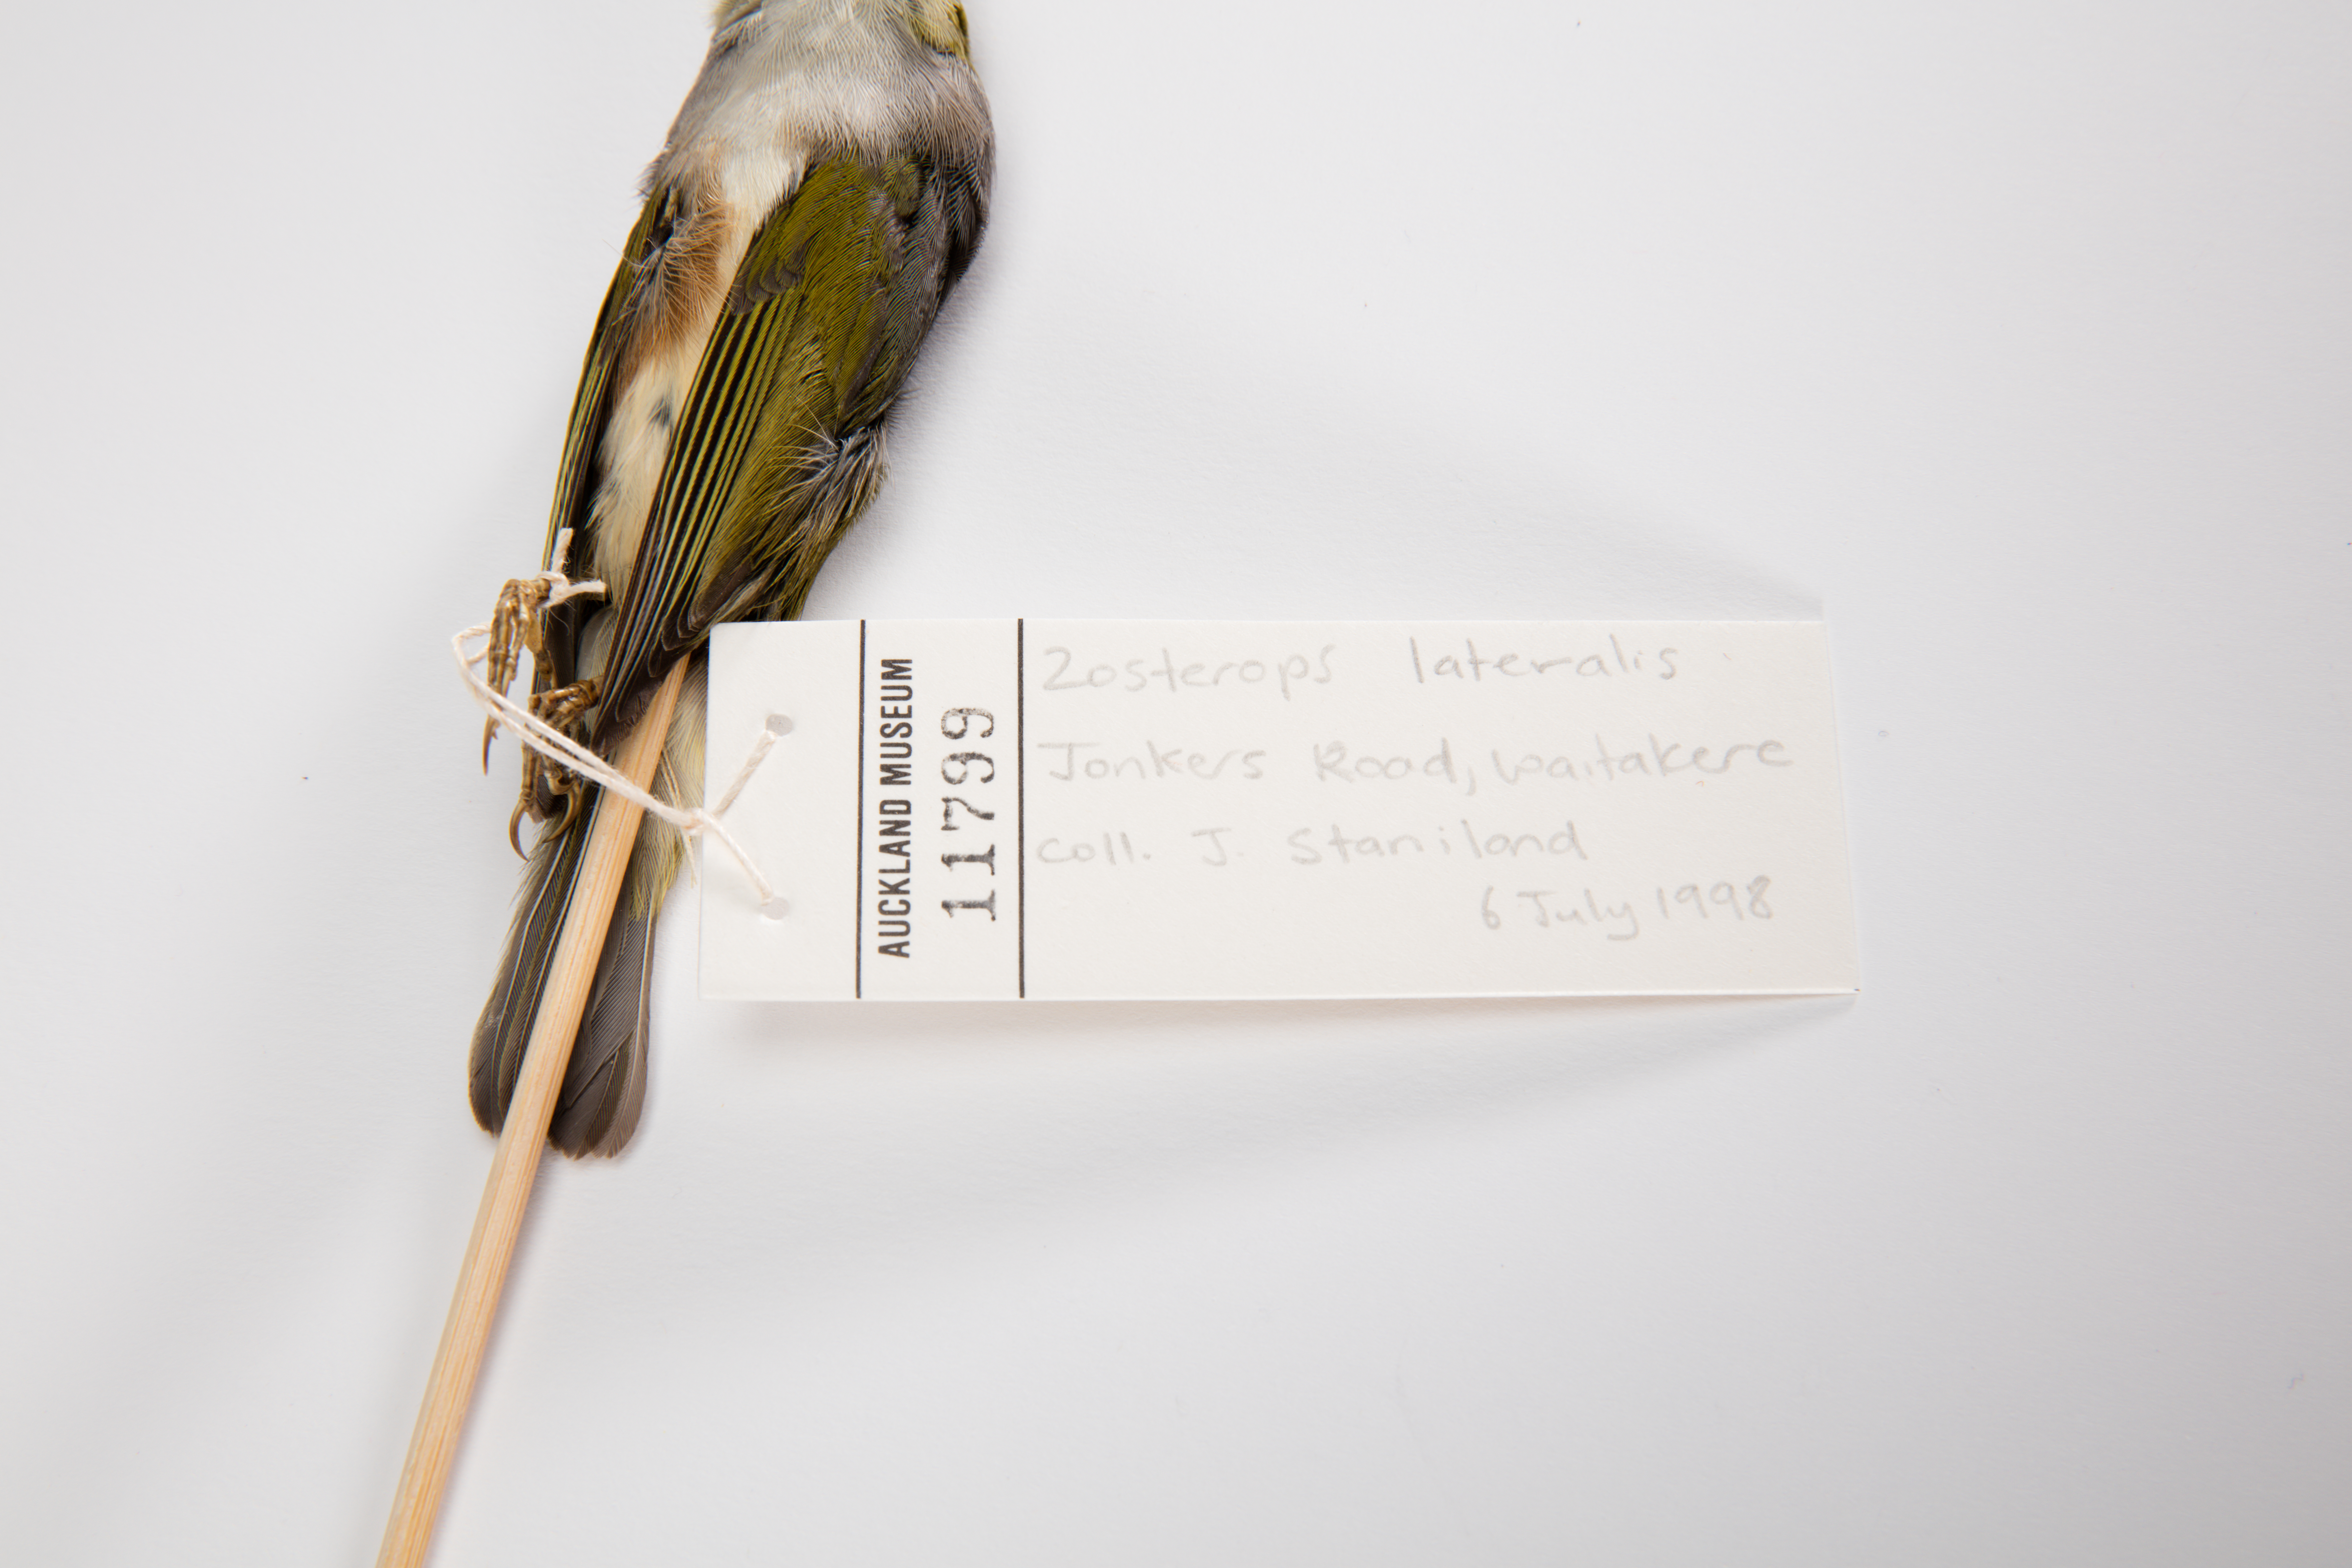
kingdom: Animalia
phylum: Chordata
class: Aves
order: Passeriformes
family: Zosteropidae
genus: Zosterops
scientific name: Zosterops lateralis
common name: Silvereye
